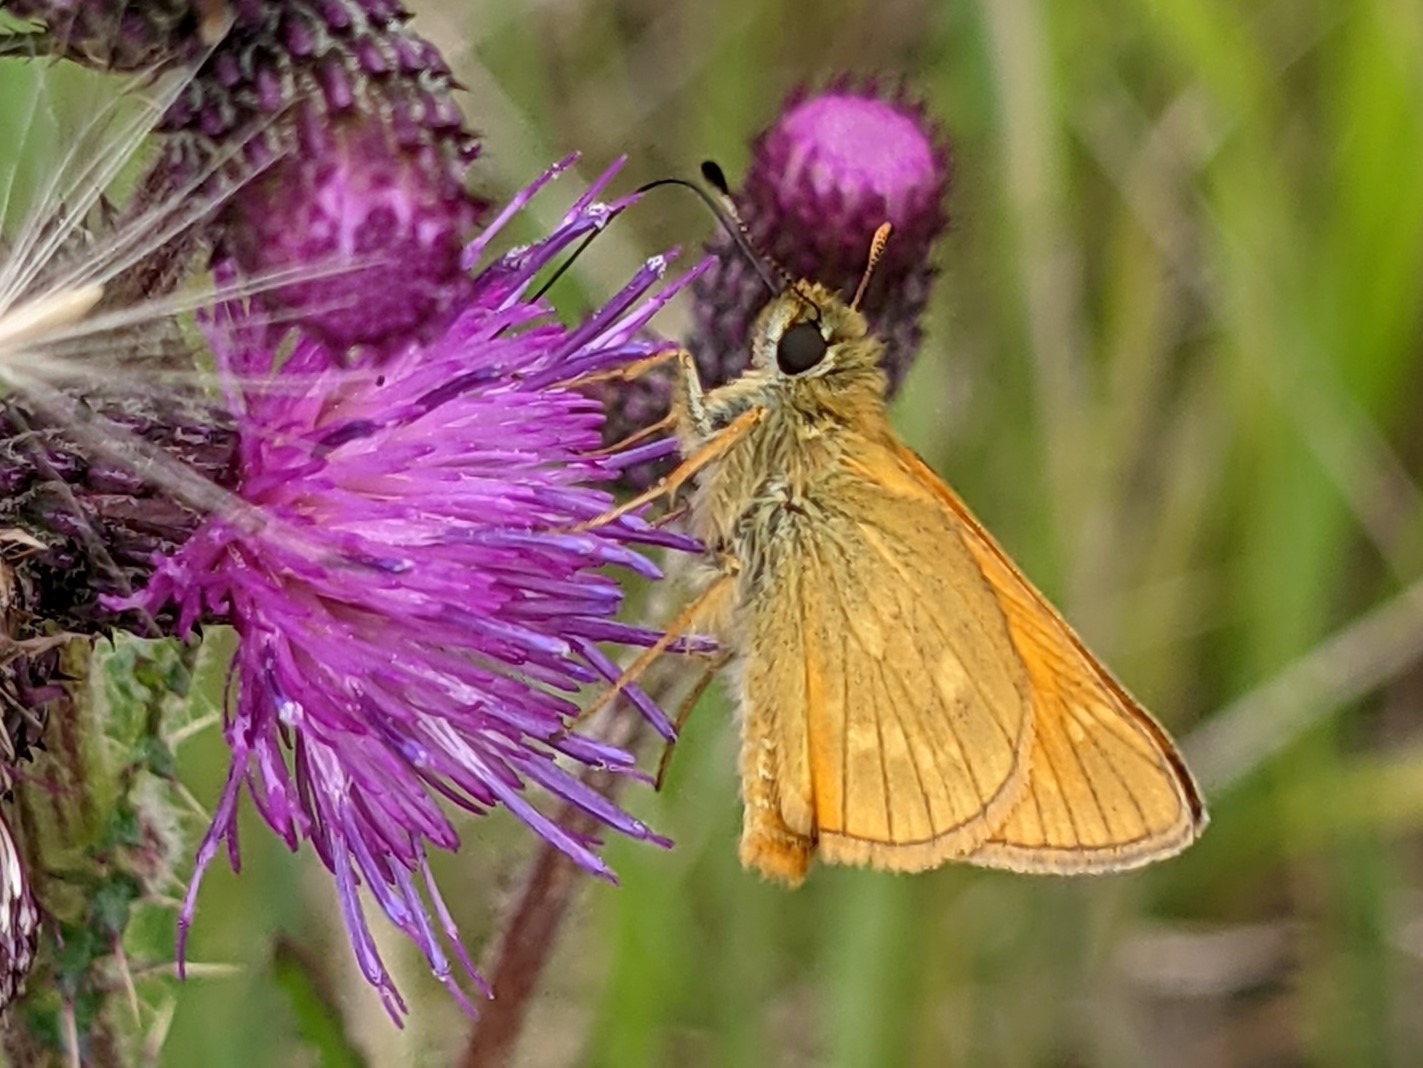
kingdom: Animalia
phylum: Arthropoda
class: Insecta
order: Lepidoptera
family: Hesperiidae
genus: Ochlodes
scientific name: Ochlodes venata
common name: Stor bredpande
